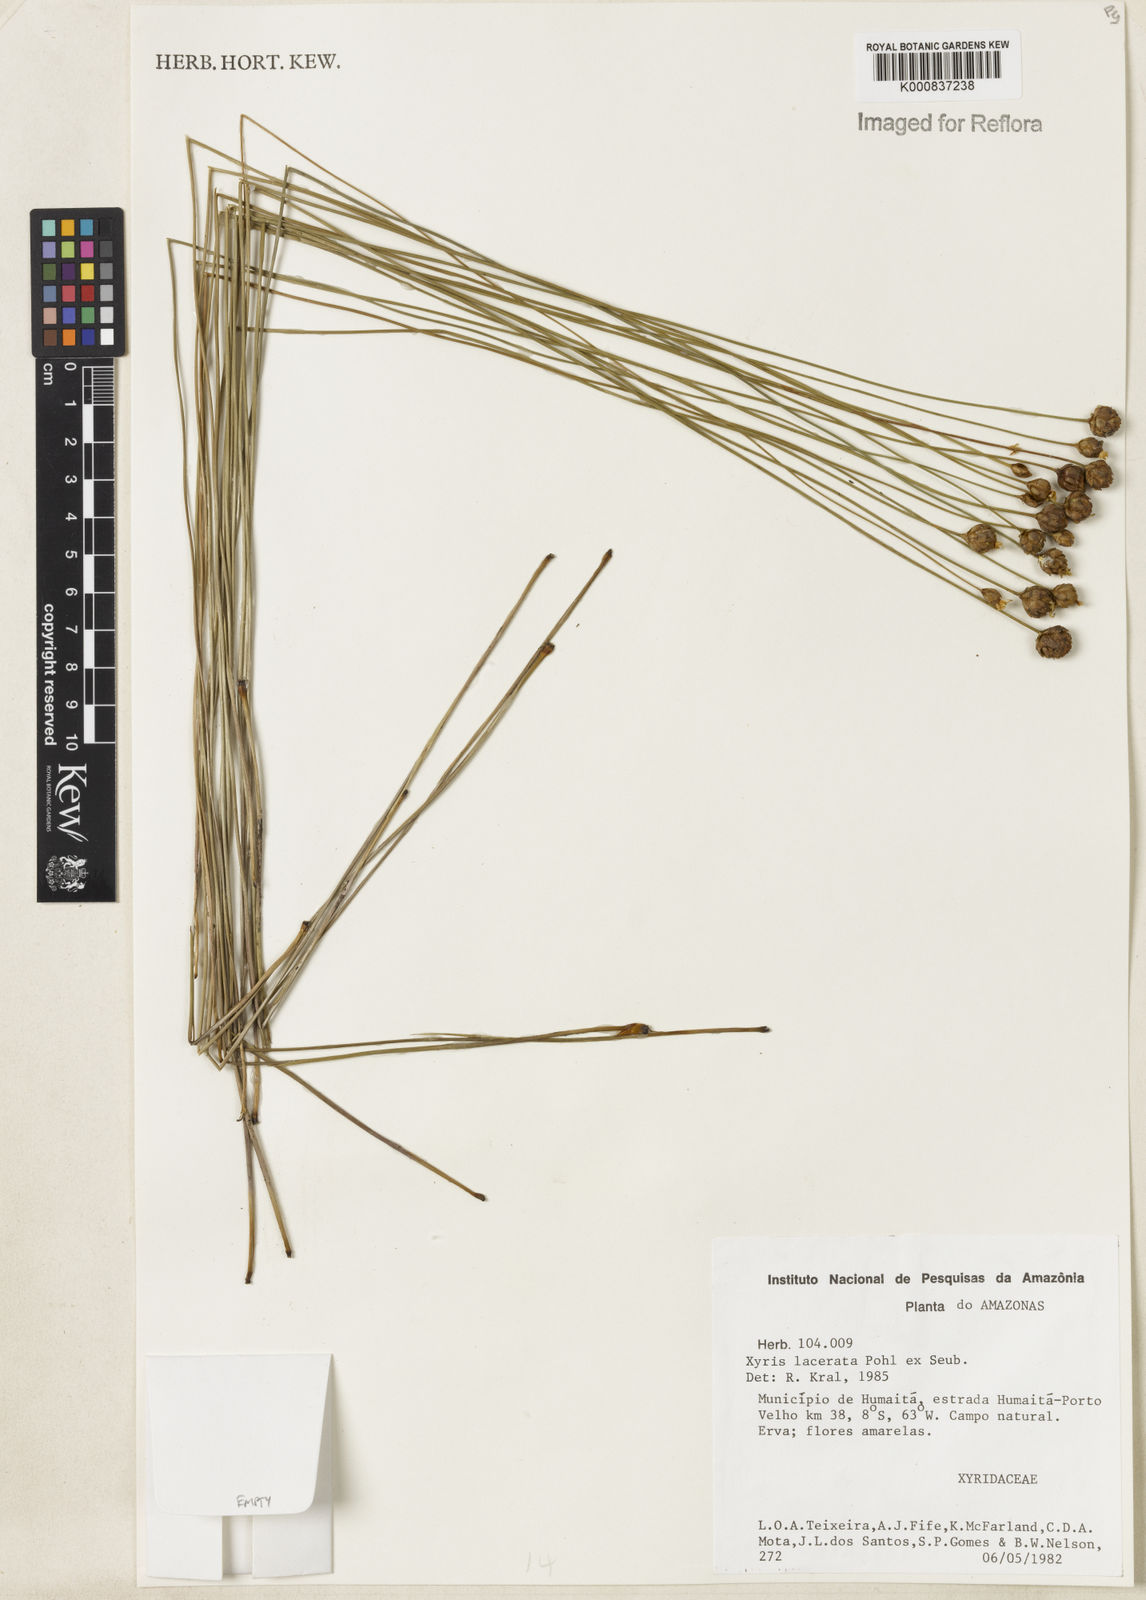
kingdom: Plantae
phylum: Tracheophyta
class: Liliopsida
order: Poales
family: Xyridaceae
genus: Xyris
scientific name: Xyris lacerata
